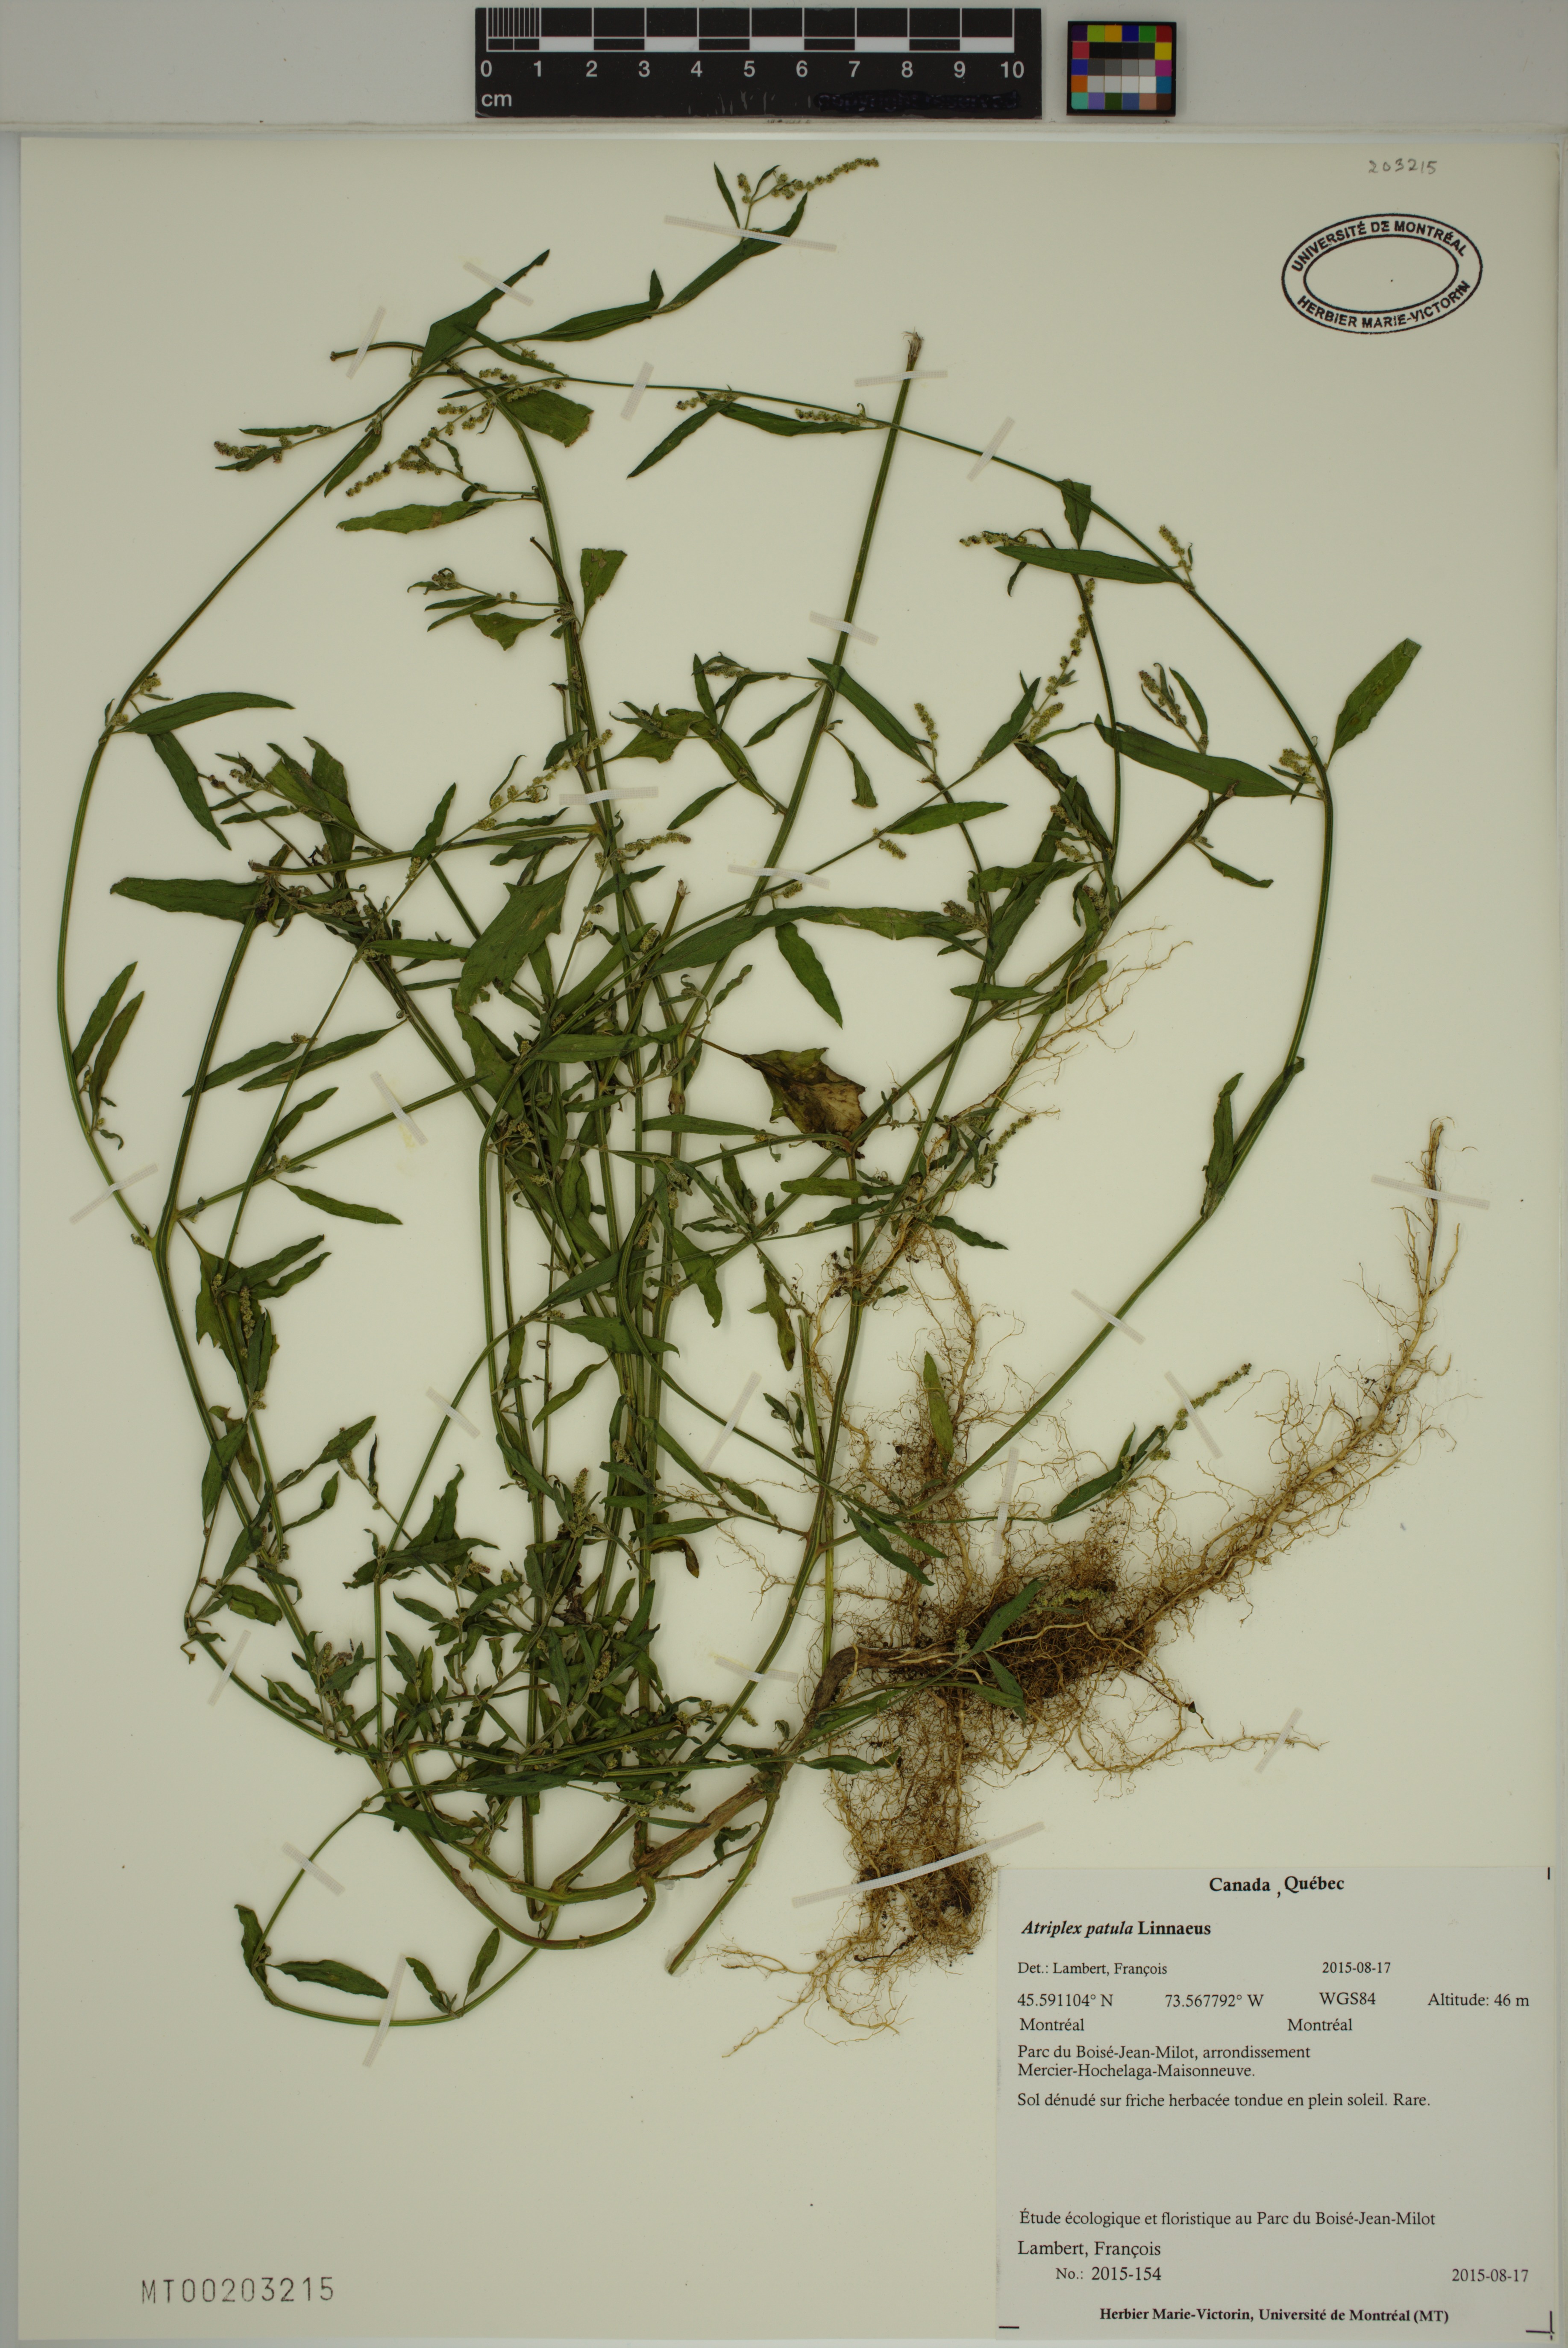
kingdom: Plantae
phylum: Tracheophyta
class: Magnoliopsida
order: Caryophyllales
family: Amaranthaceae
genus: Atriplex
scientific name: Atriplex patula
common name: Common orache
